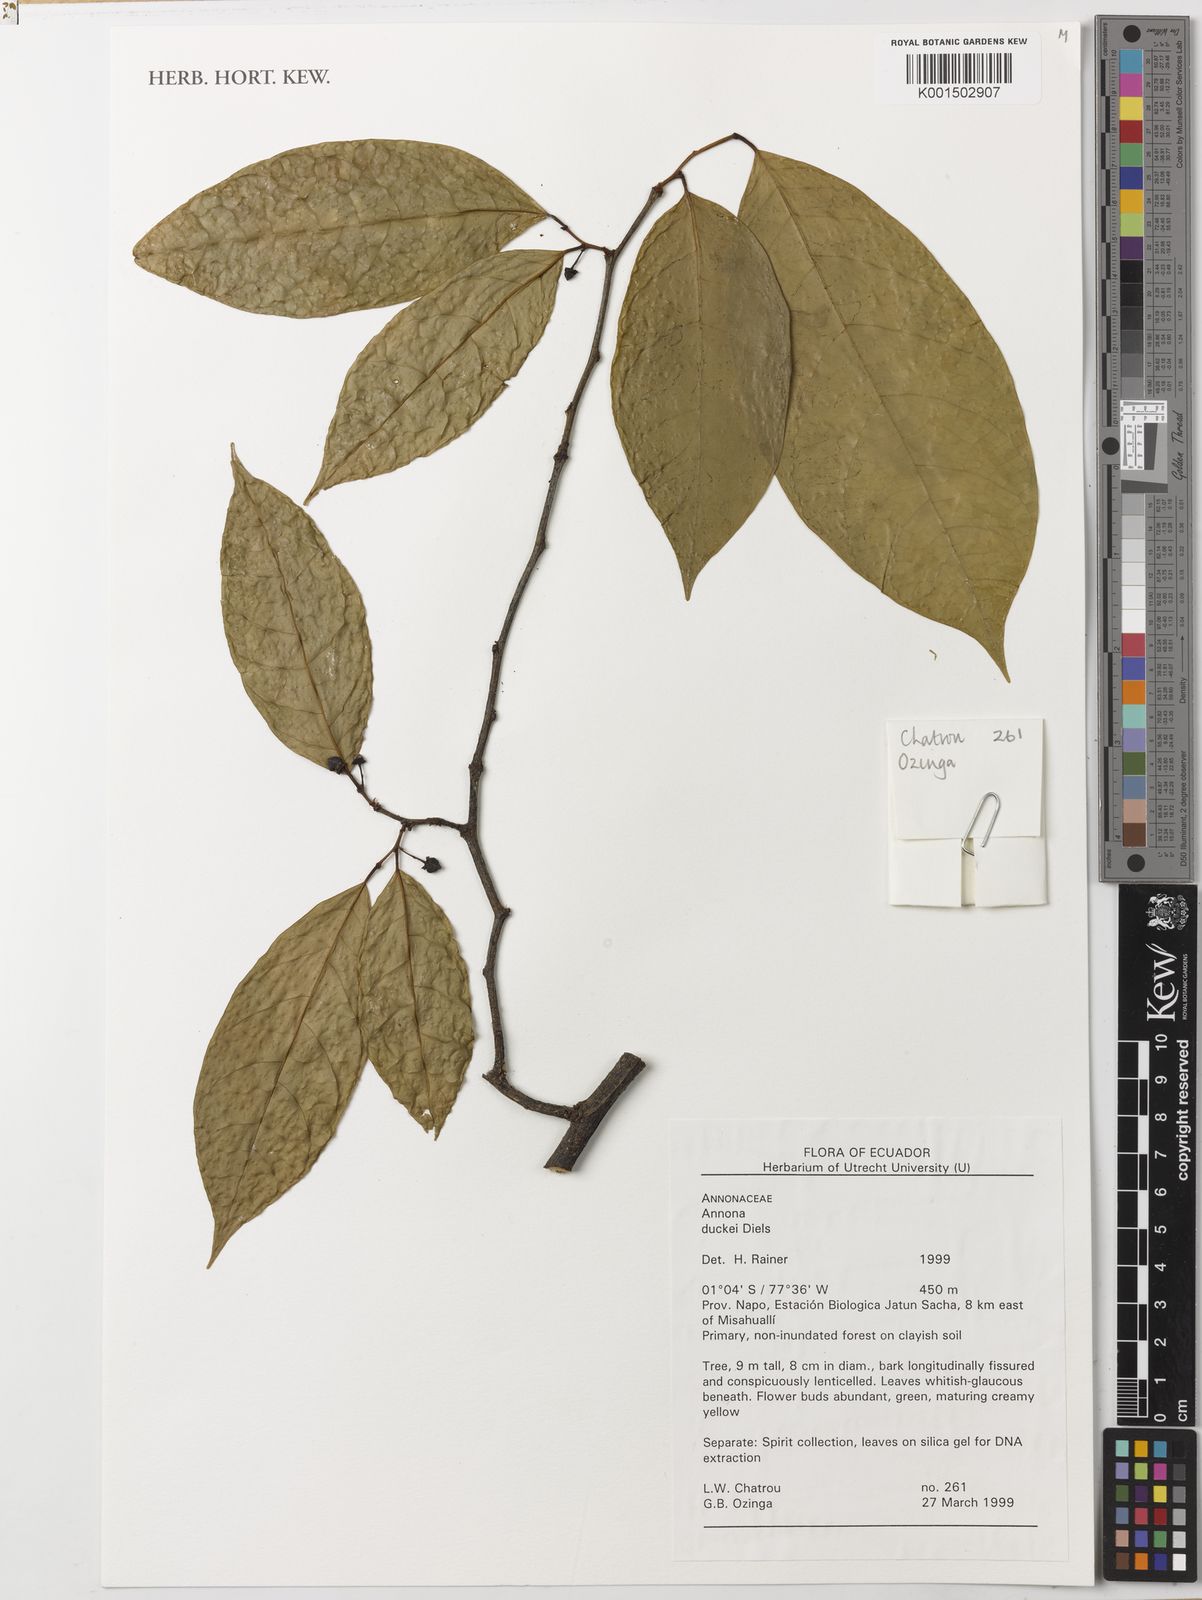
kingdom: Plantae
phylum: Tracheophyta
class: Magnoliopsida
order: Magnoliales
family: Annonaceae
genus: Annona
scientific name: Annona duckei
